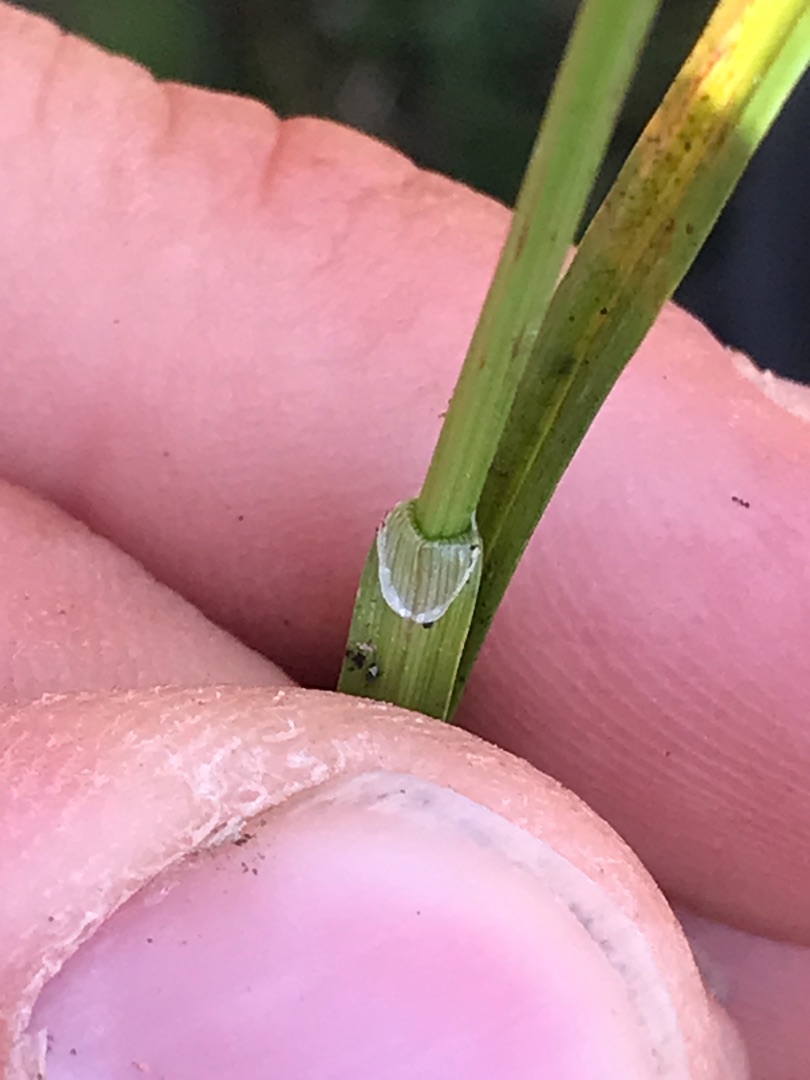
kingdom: Plantae
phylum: Tracheophyta
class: Liliopsida
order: Poales
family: Cyperaceae
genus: Carex
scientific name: Carex spicata
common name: Spidskapslet star
